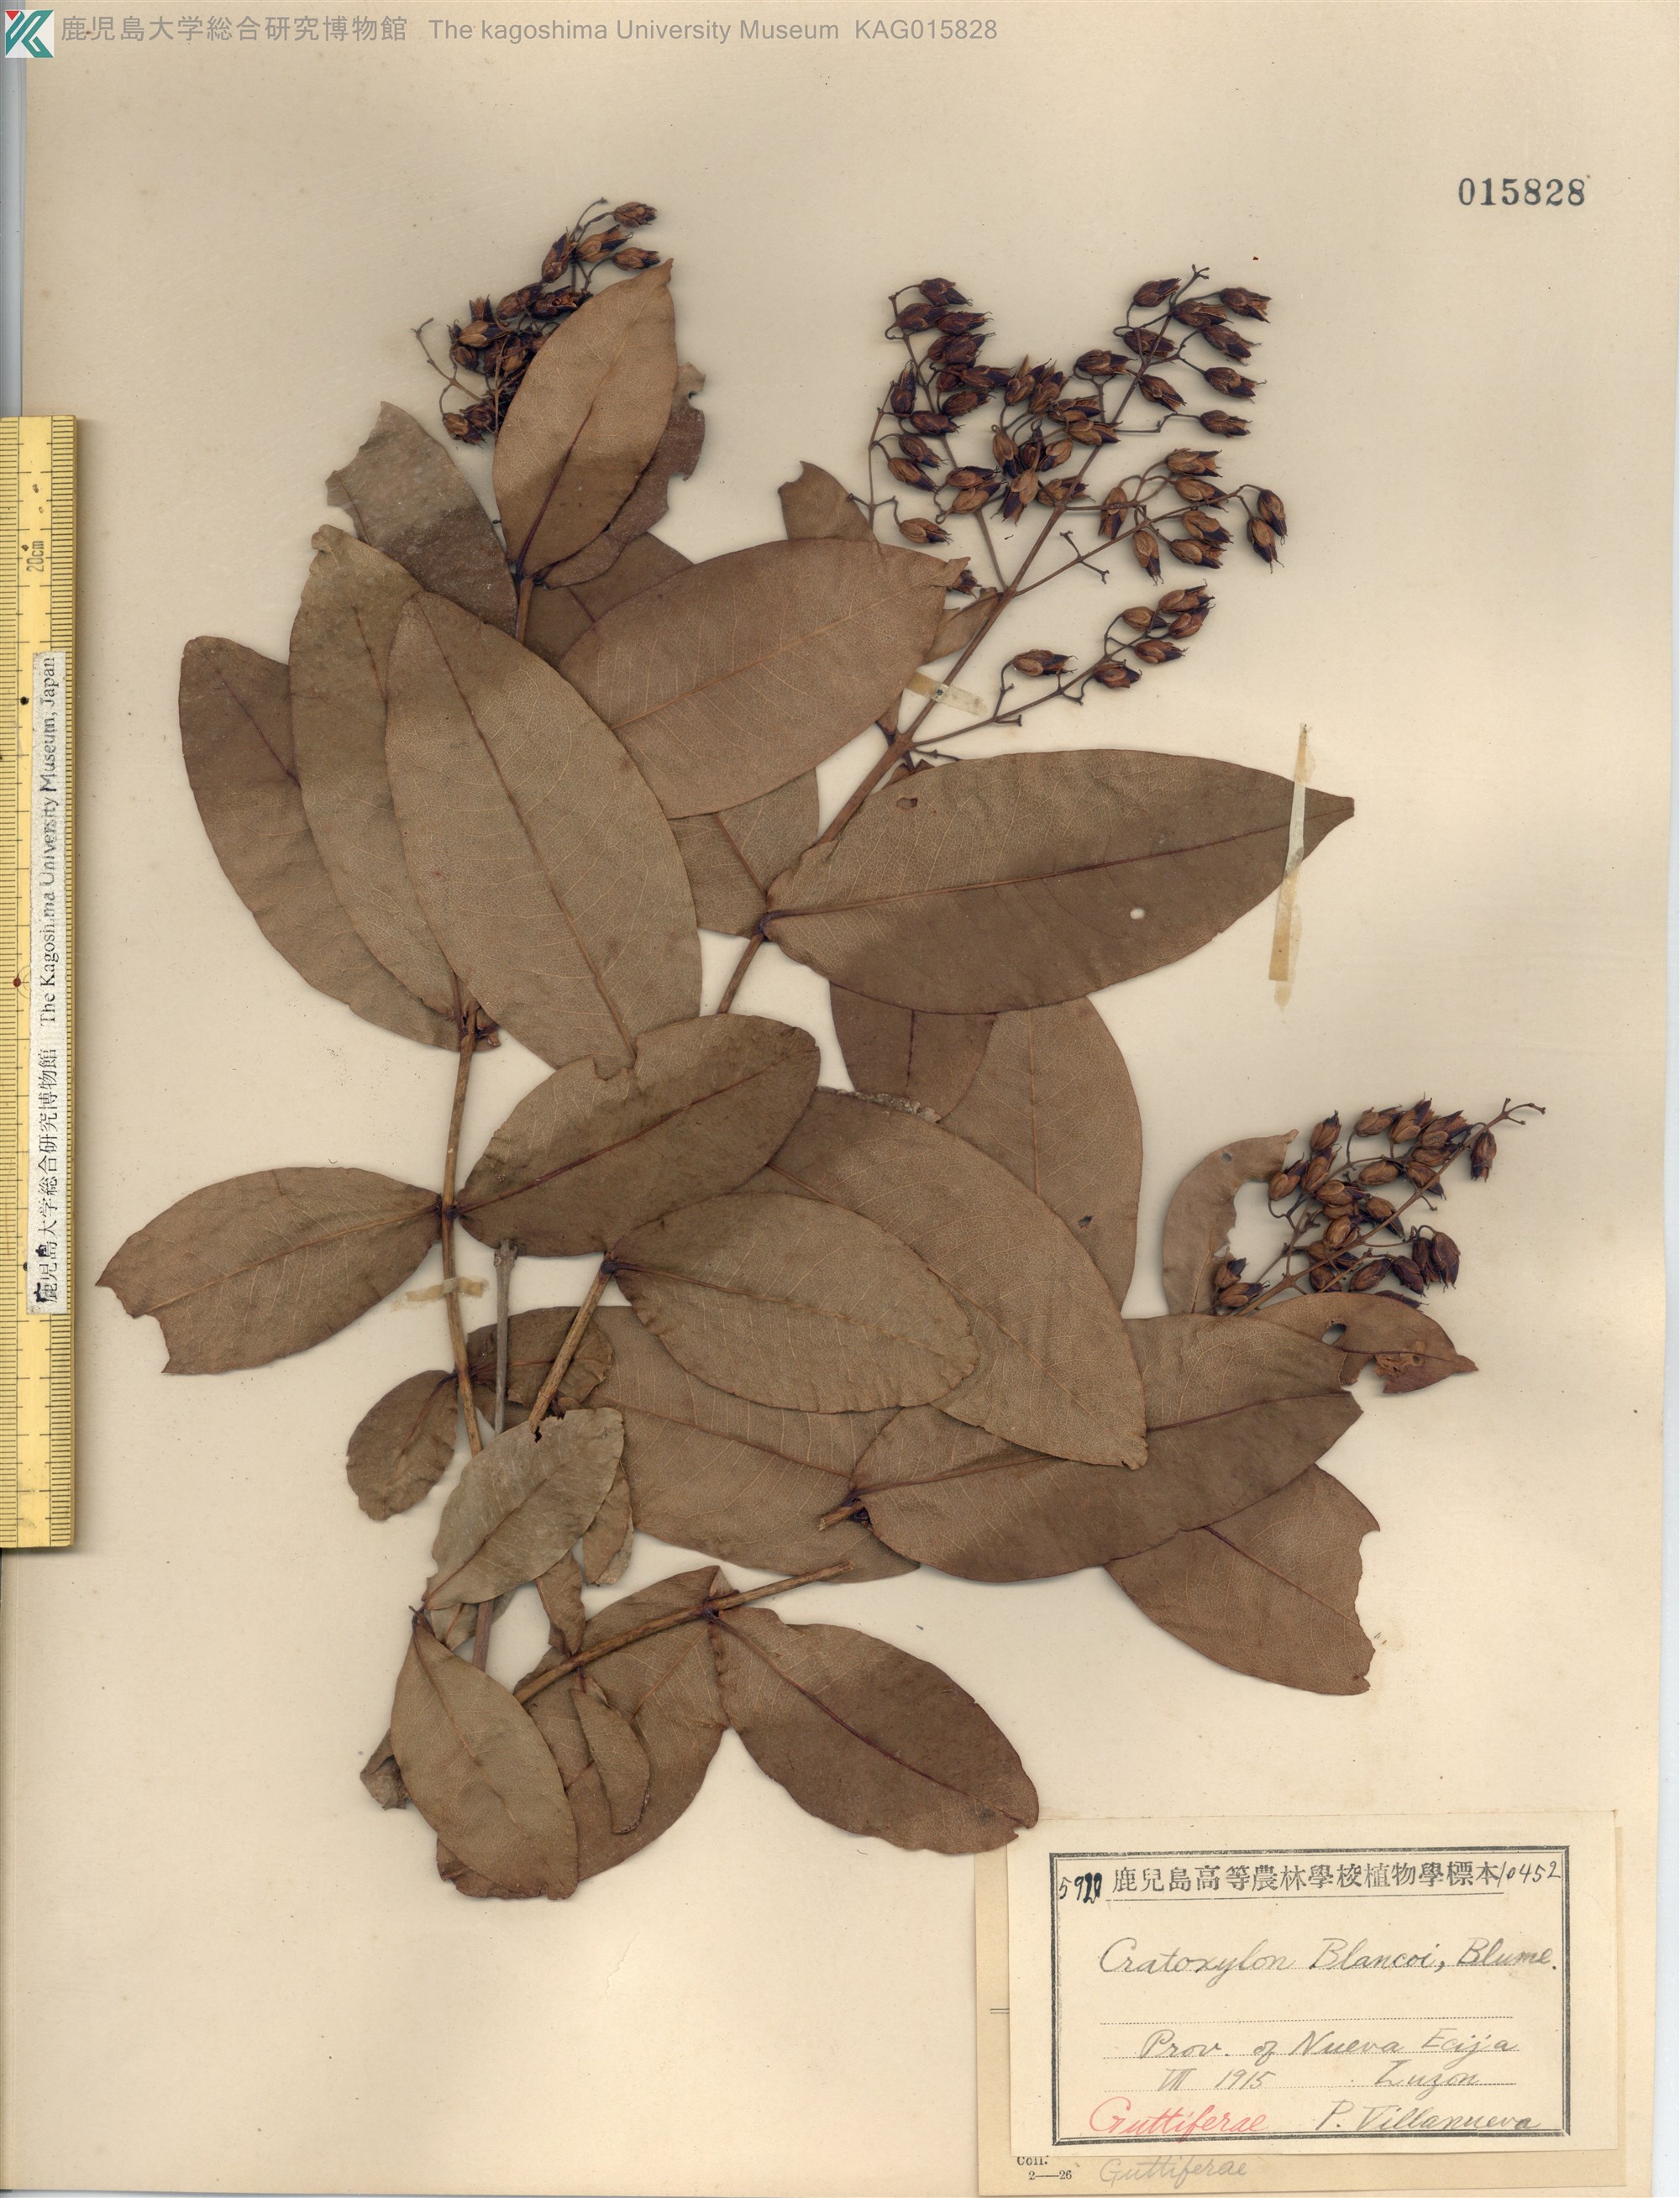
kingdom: Plantae
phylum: Tracheophyta
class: Magnoliopsida
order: Malpighiales
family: Hypericaceae
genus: Cratoxylum
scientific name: Cratoxylum sumatranum
